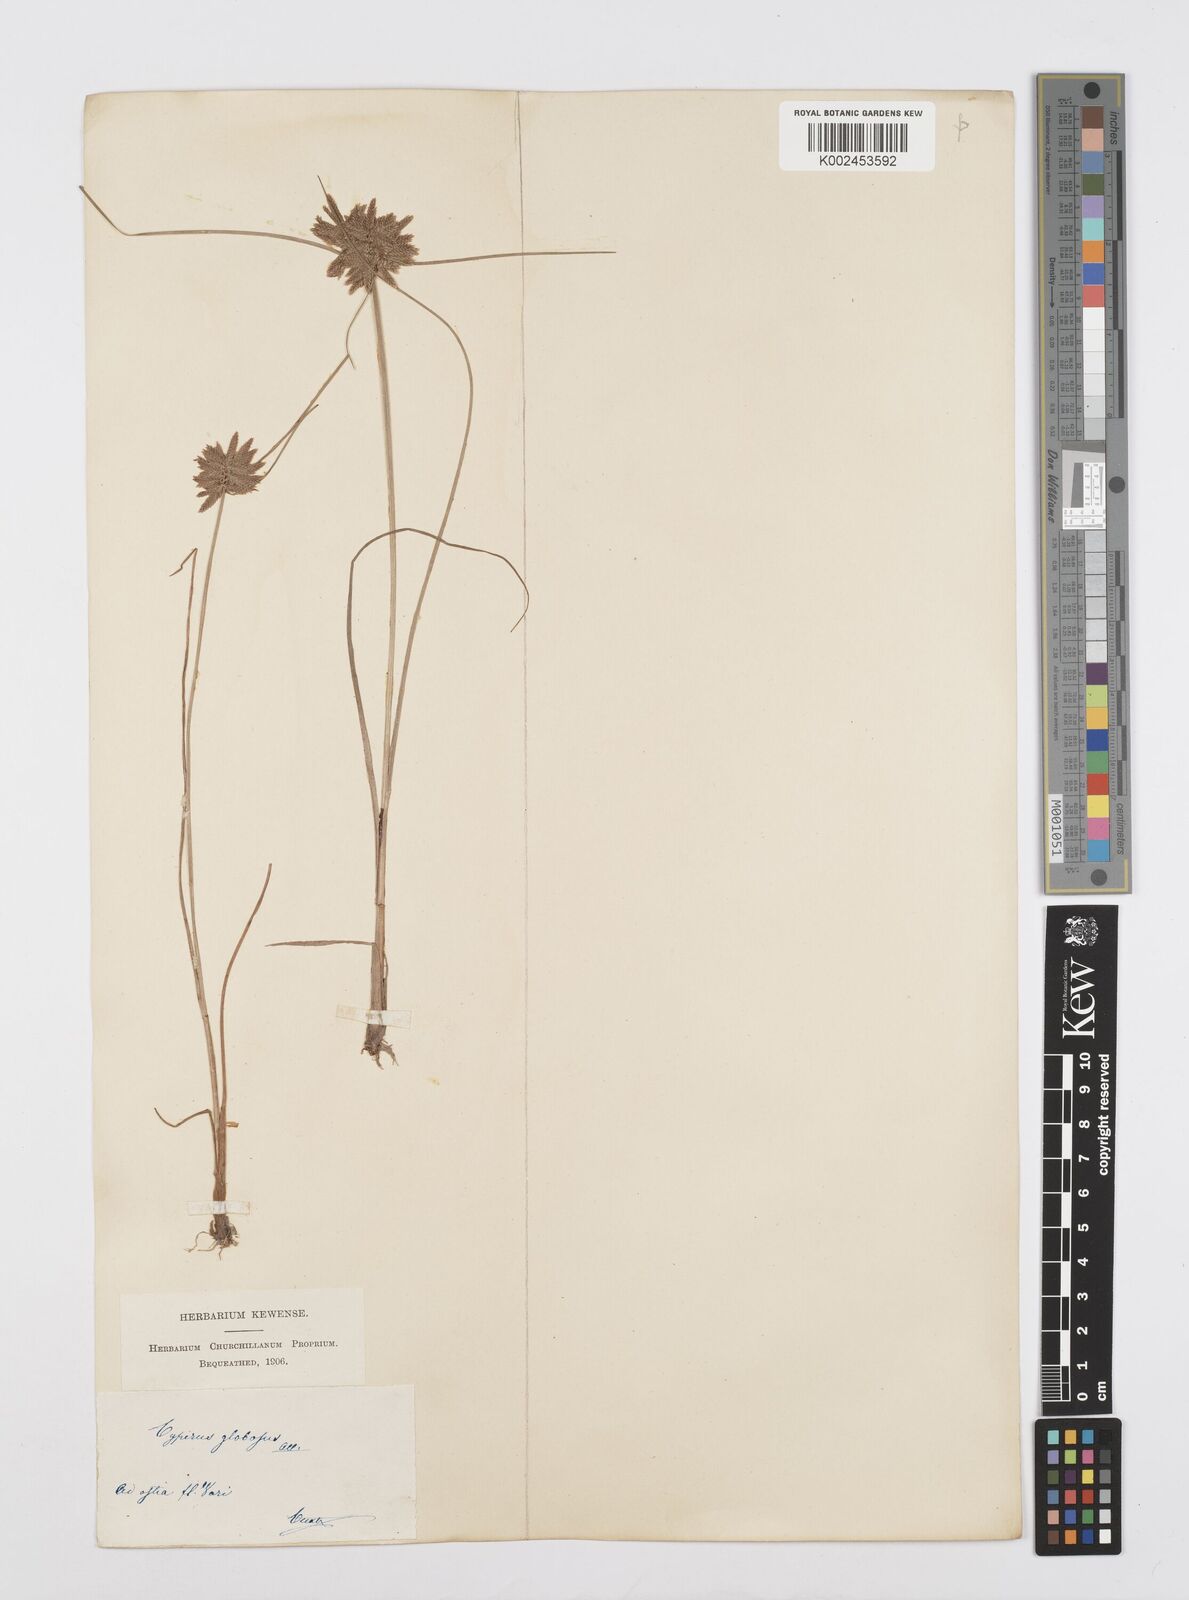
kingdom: Plantae
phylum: Tracheophyta
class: Liliopsida
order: Poales
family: Cyperaceae
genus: Cyperus
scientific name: Cyperus flavidus
